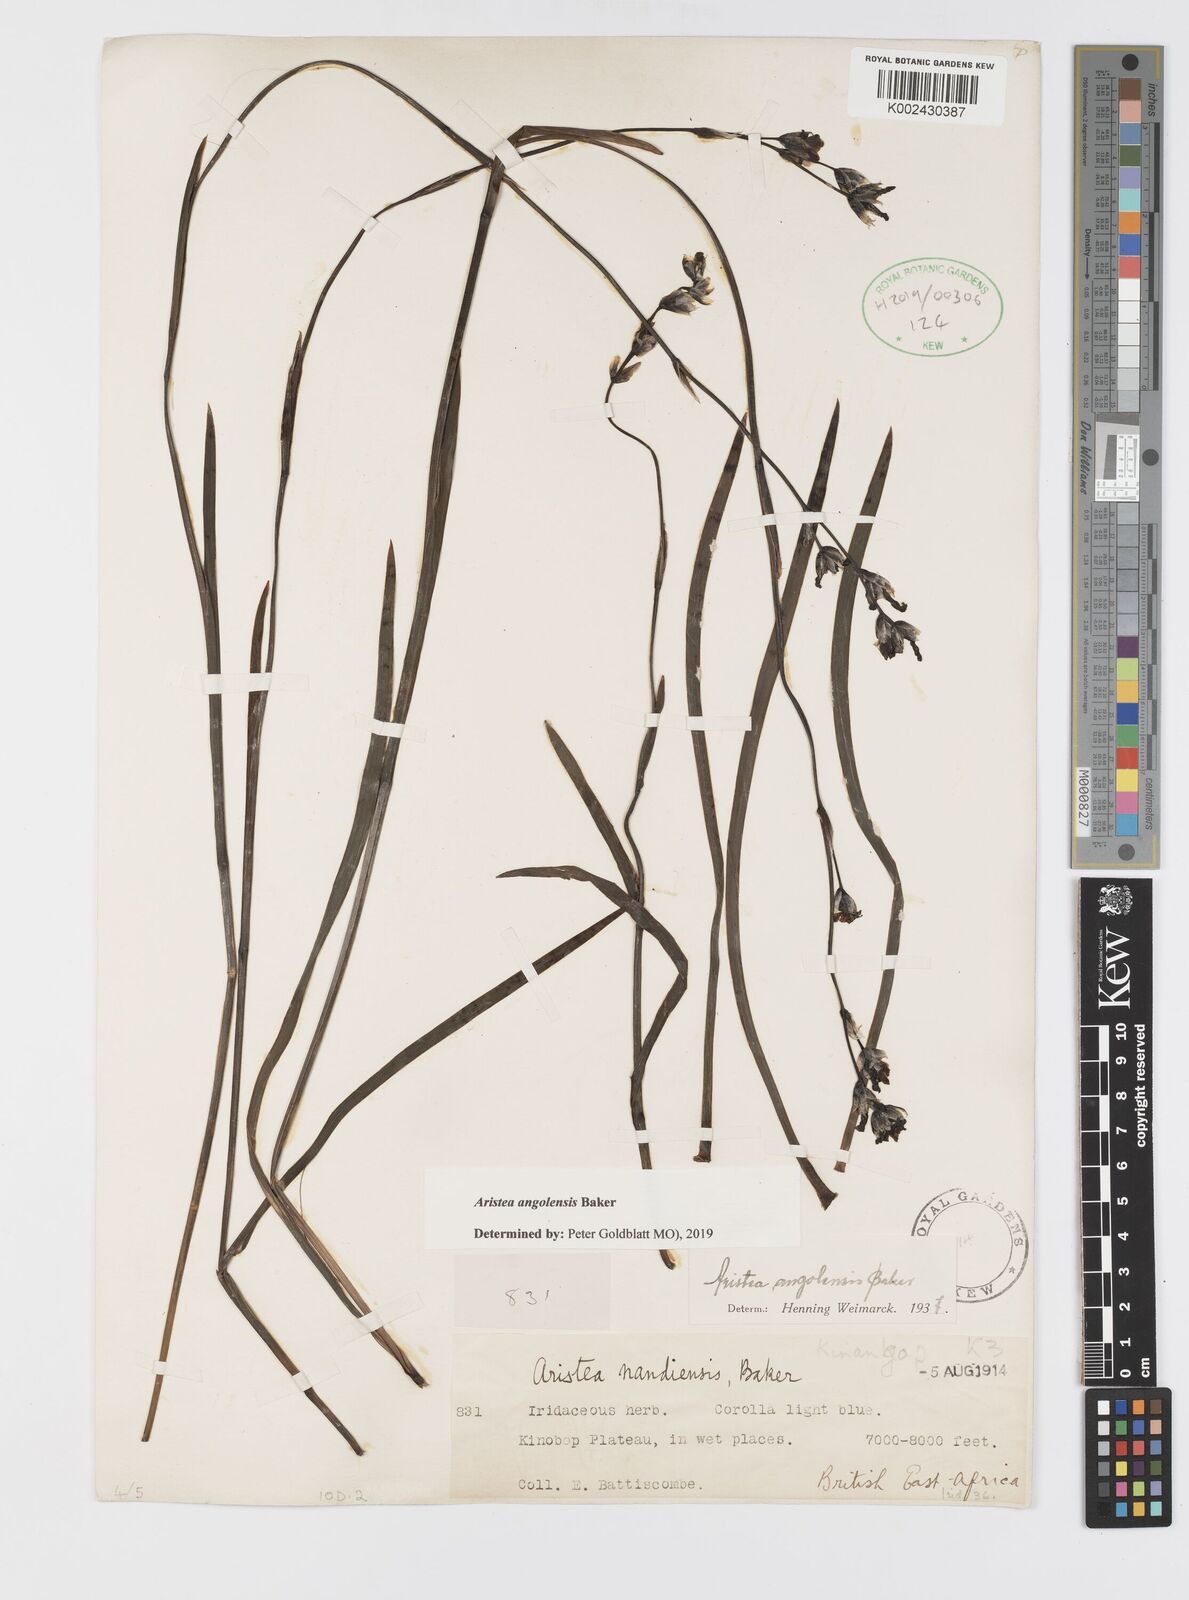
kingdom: Plantae
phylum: Tracheophyta
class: Liliopsida
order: Asparagales
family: Iridaceae
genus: Aristea
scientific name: Aristea angolensis
